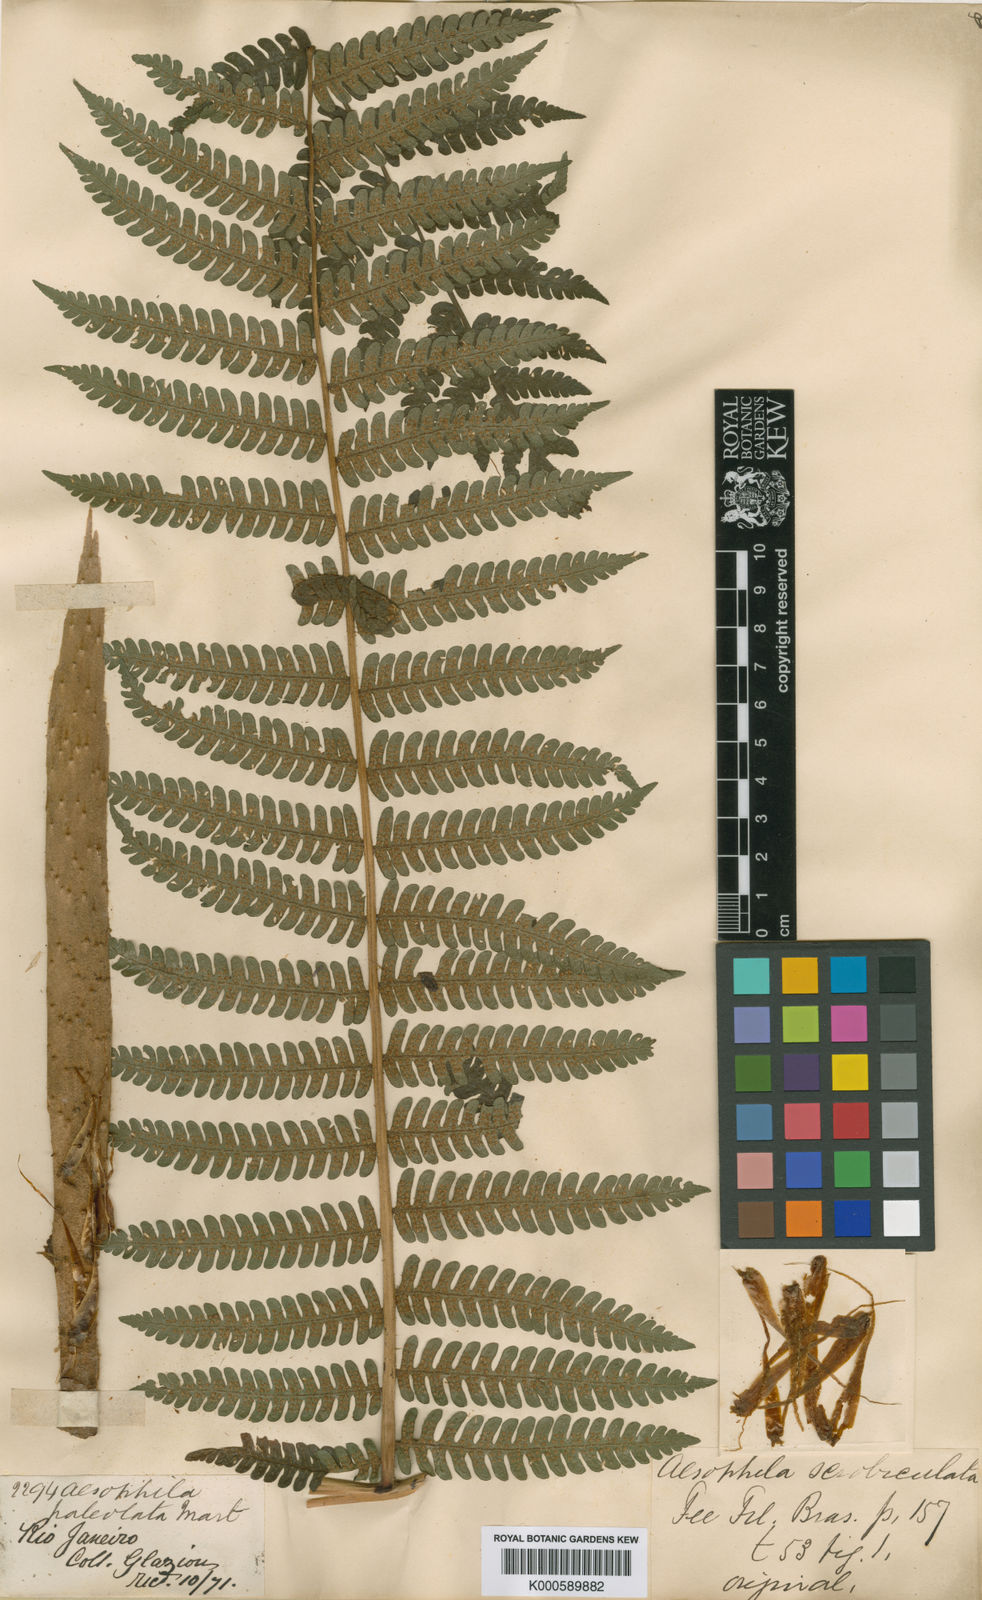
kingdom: Plantae
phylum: Tracheophyta
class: Polypodiopsida
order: Cyatheales
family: Cyatheaceae
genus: Cyathea
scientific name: Cyathea phalerata
